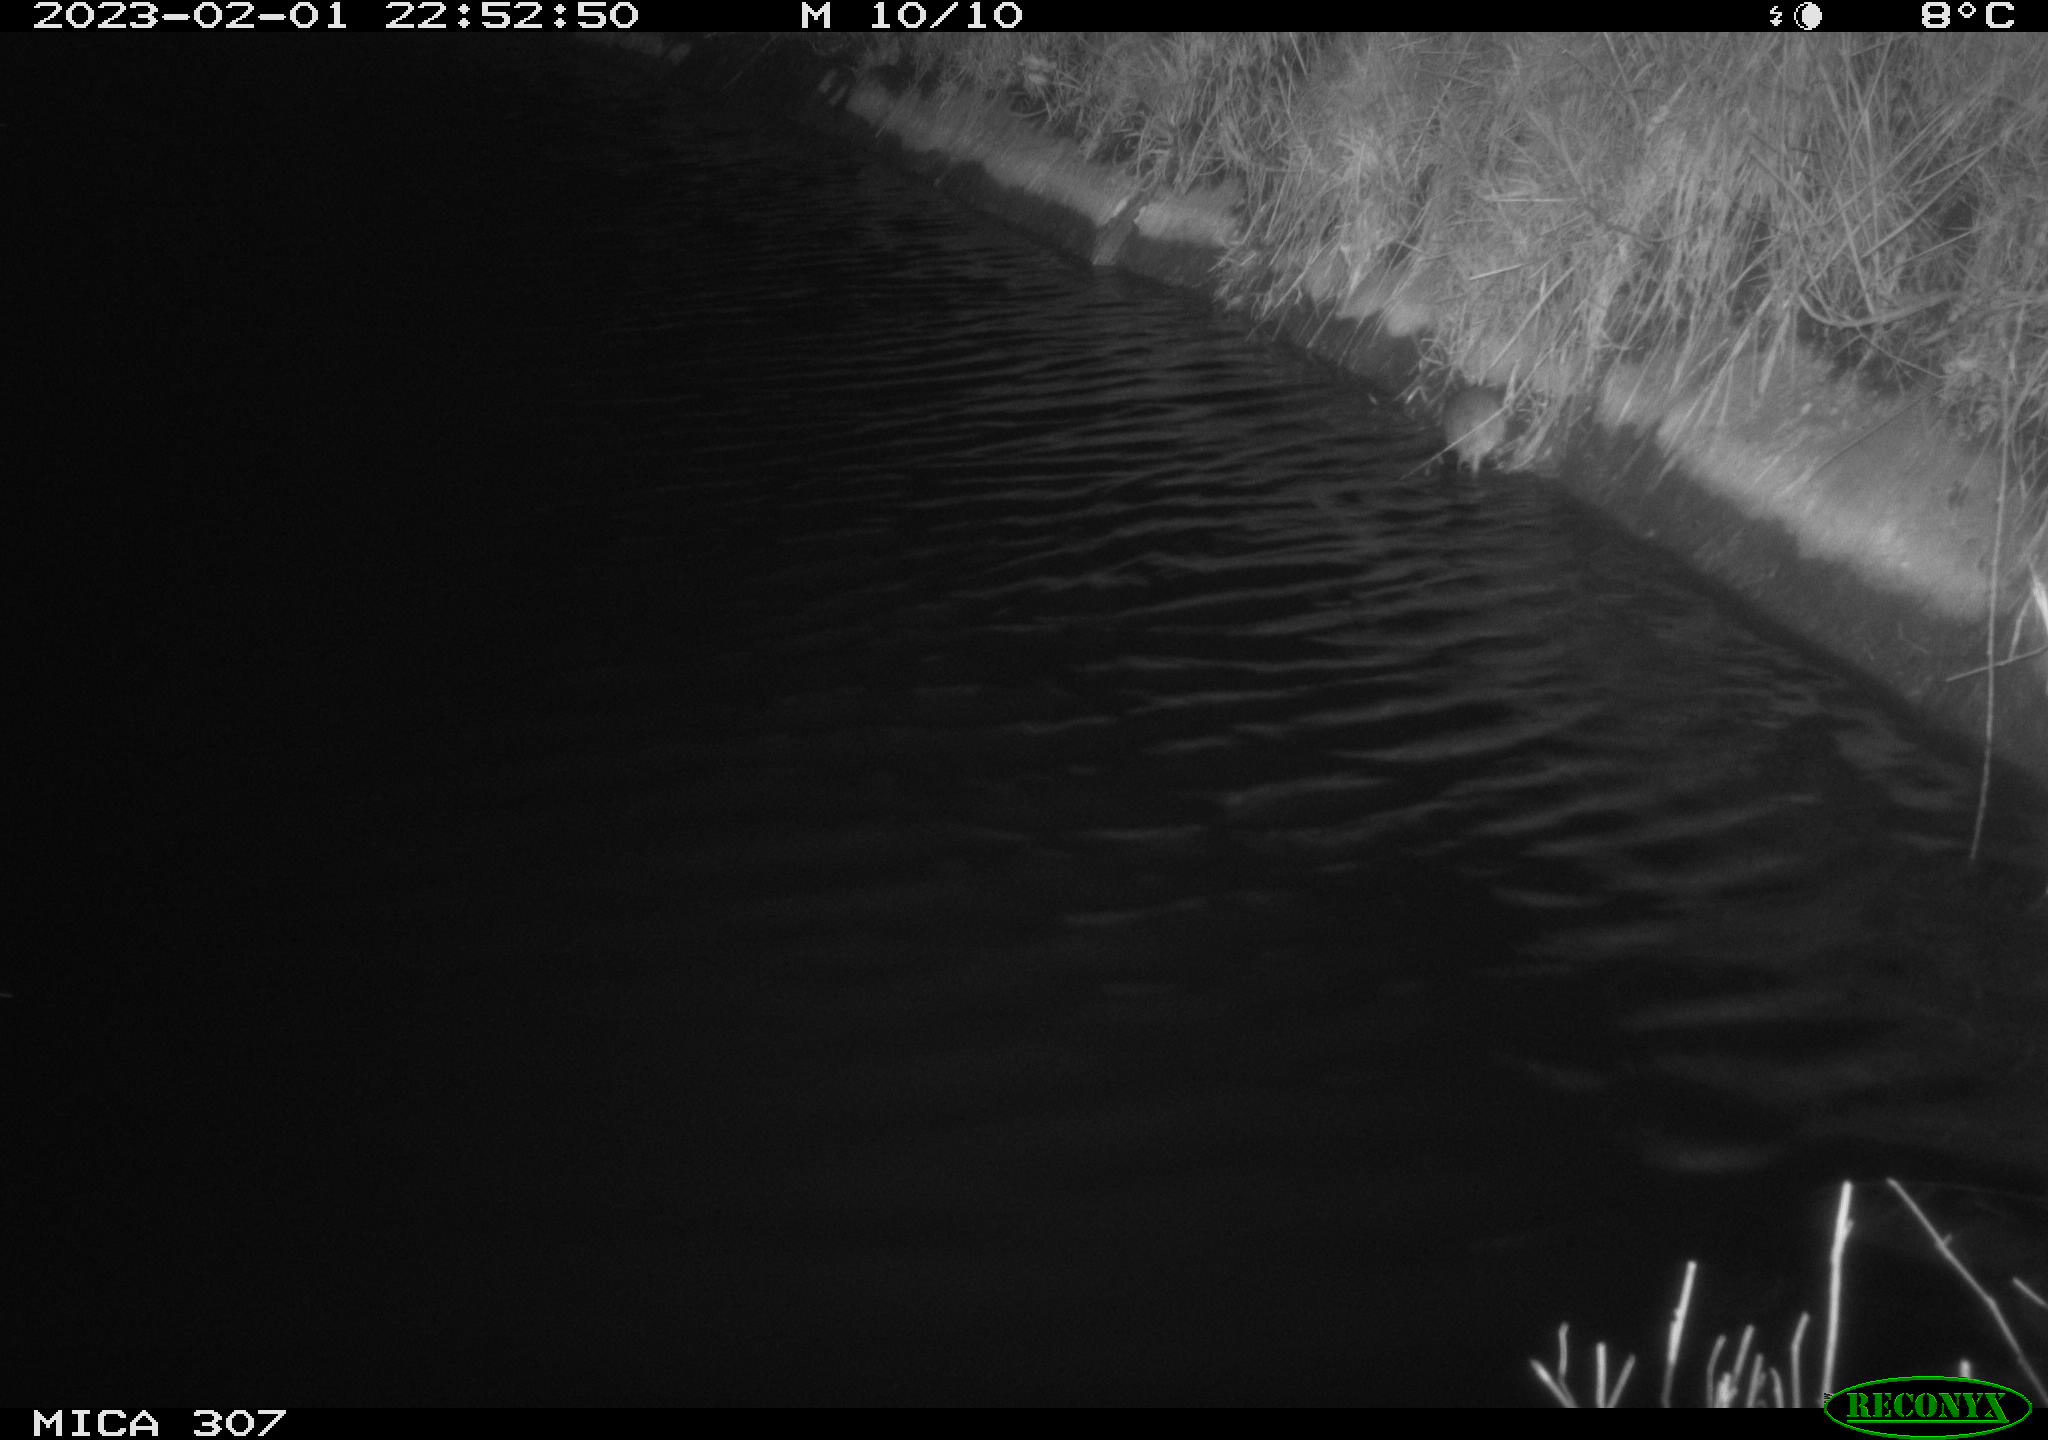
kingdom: Animalia
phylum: Chordata
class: Mammalia
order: Rodentia
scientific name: Rodentia
